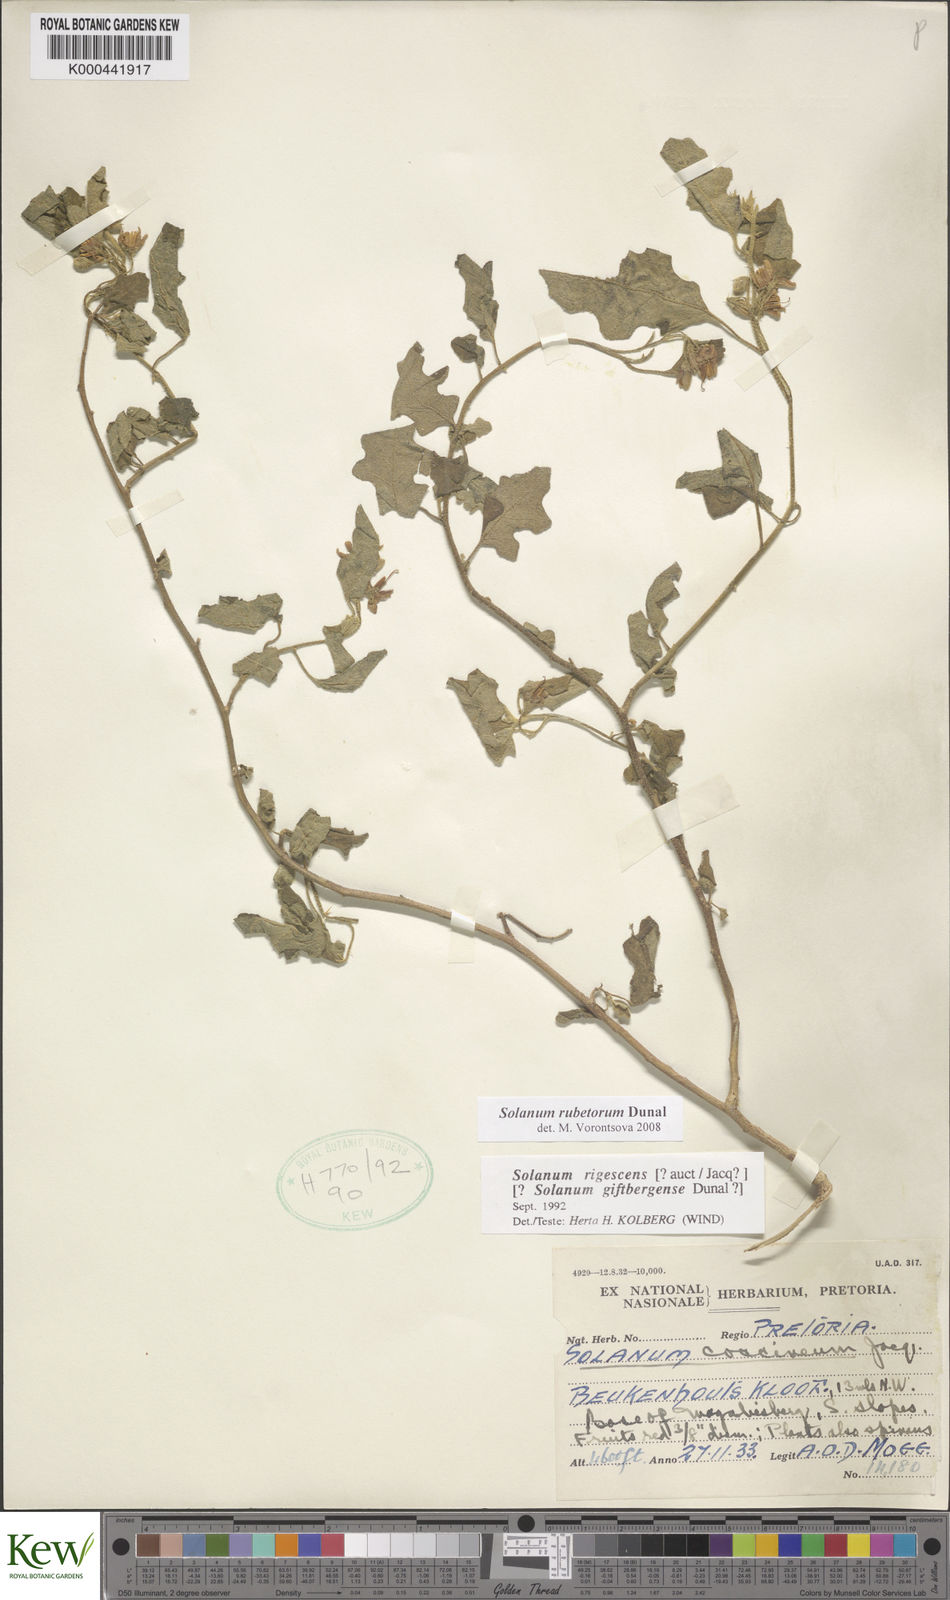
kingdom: Plantae
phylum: Tracheophyta
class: Magnoliopsida
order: Solanales
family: Solanaceae
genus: Solanum
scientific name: Solanum rubetorum
